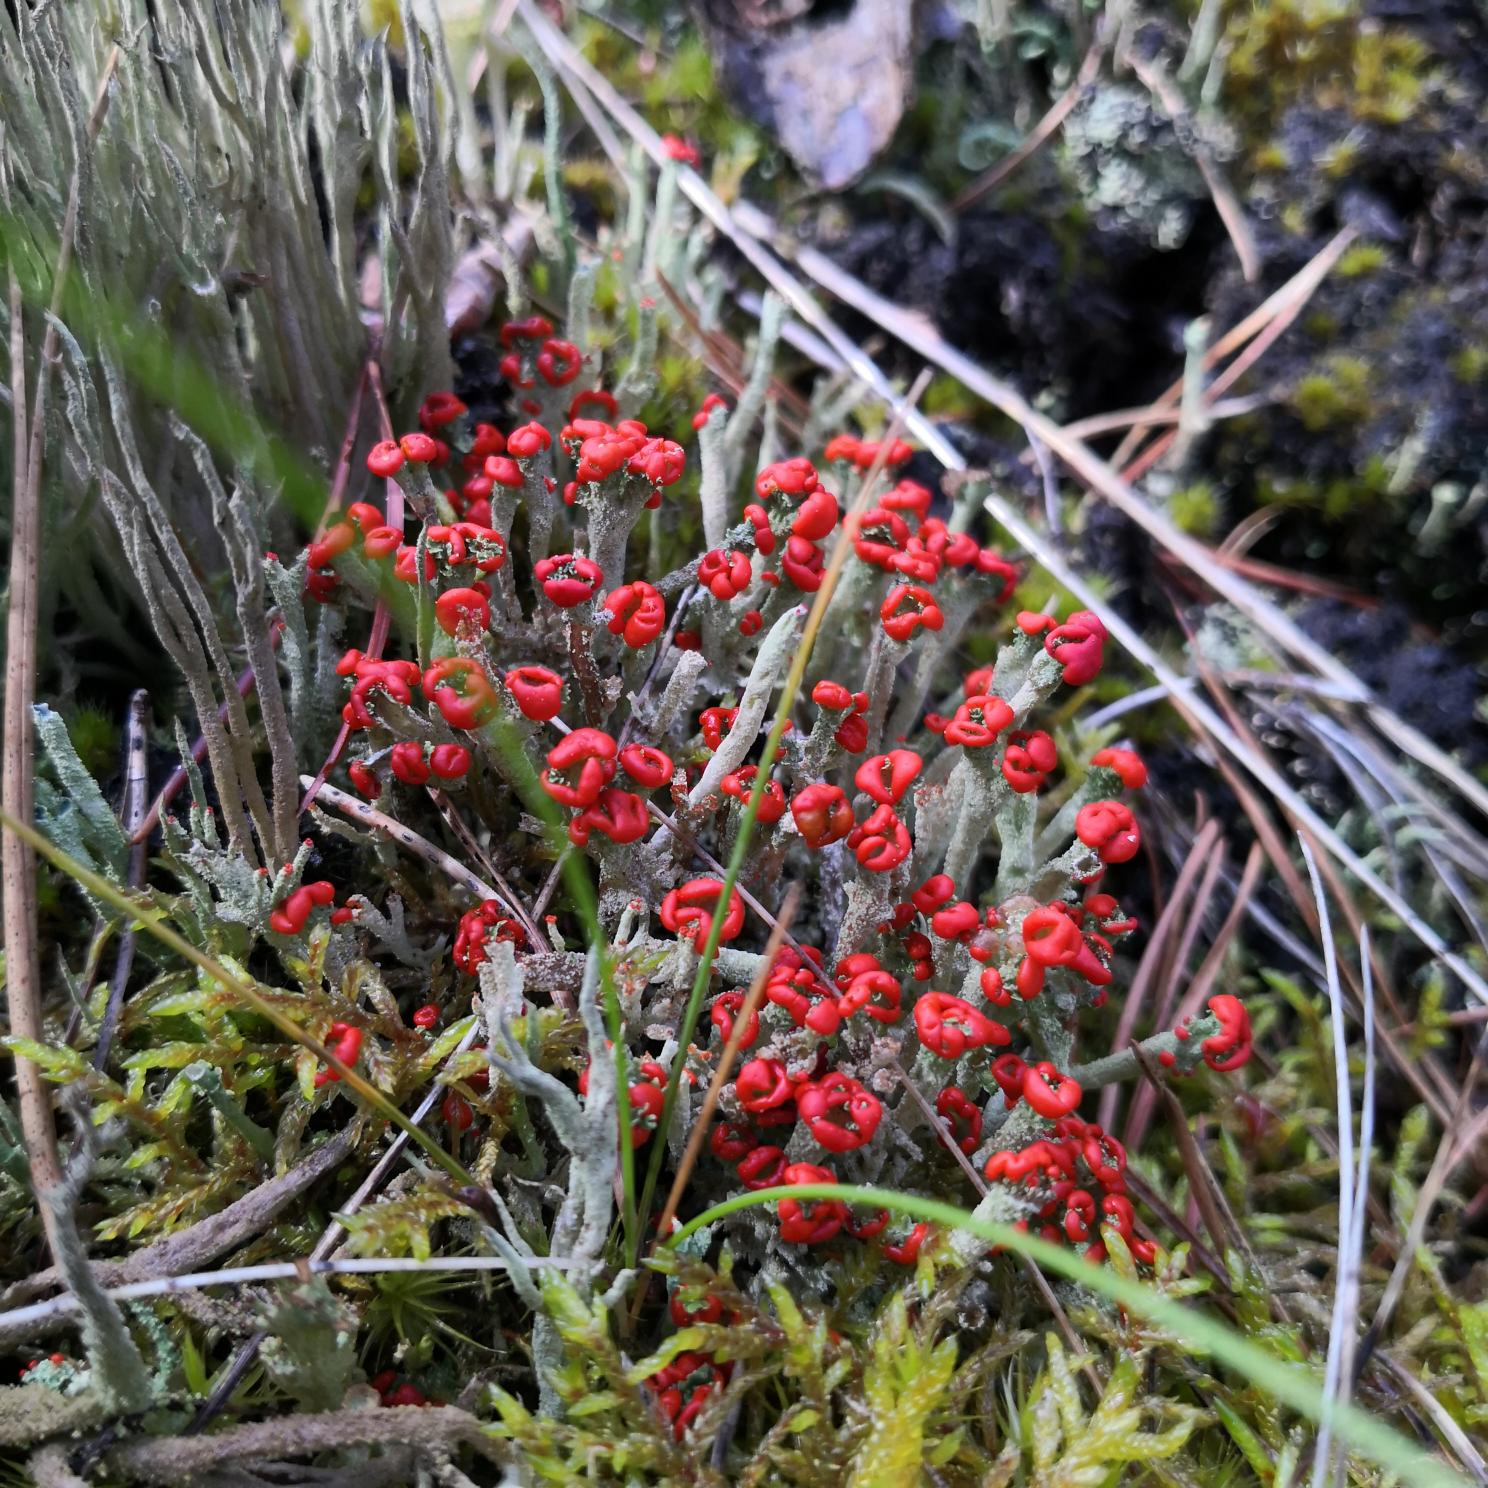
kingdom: Fungi
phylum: Ascomycota
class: Lecanoromycetes
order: Lecanorales
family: Cladoniaceae
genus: Cladonia
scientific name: Cladonia floerkeana
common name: Lakrød bægerlav
